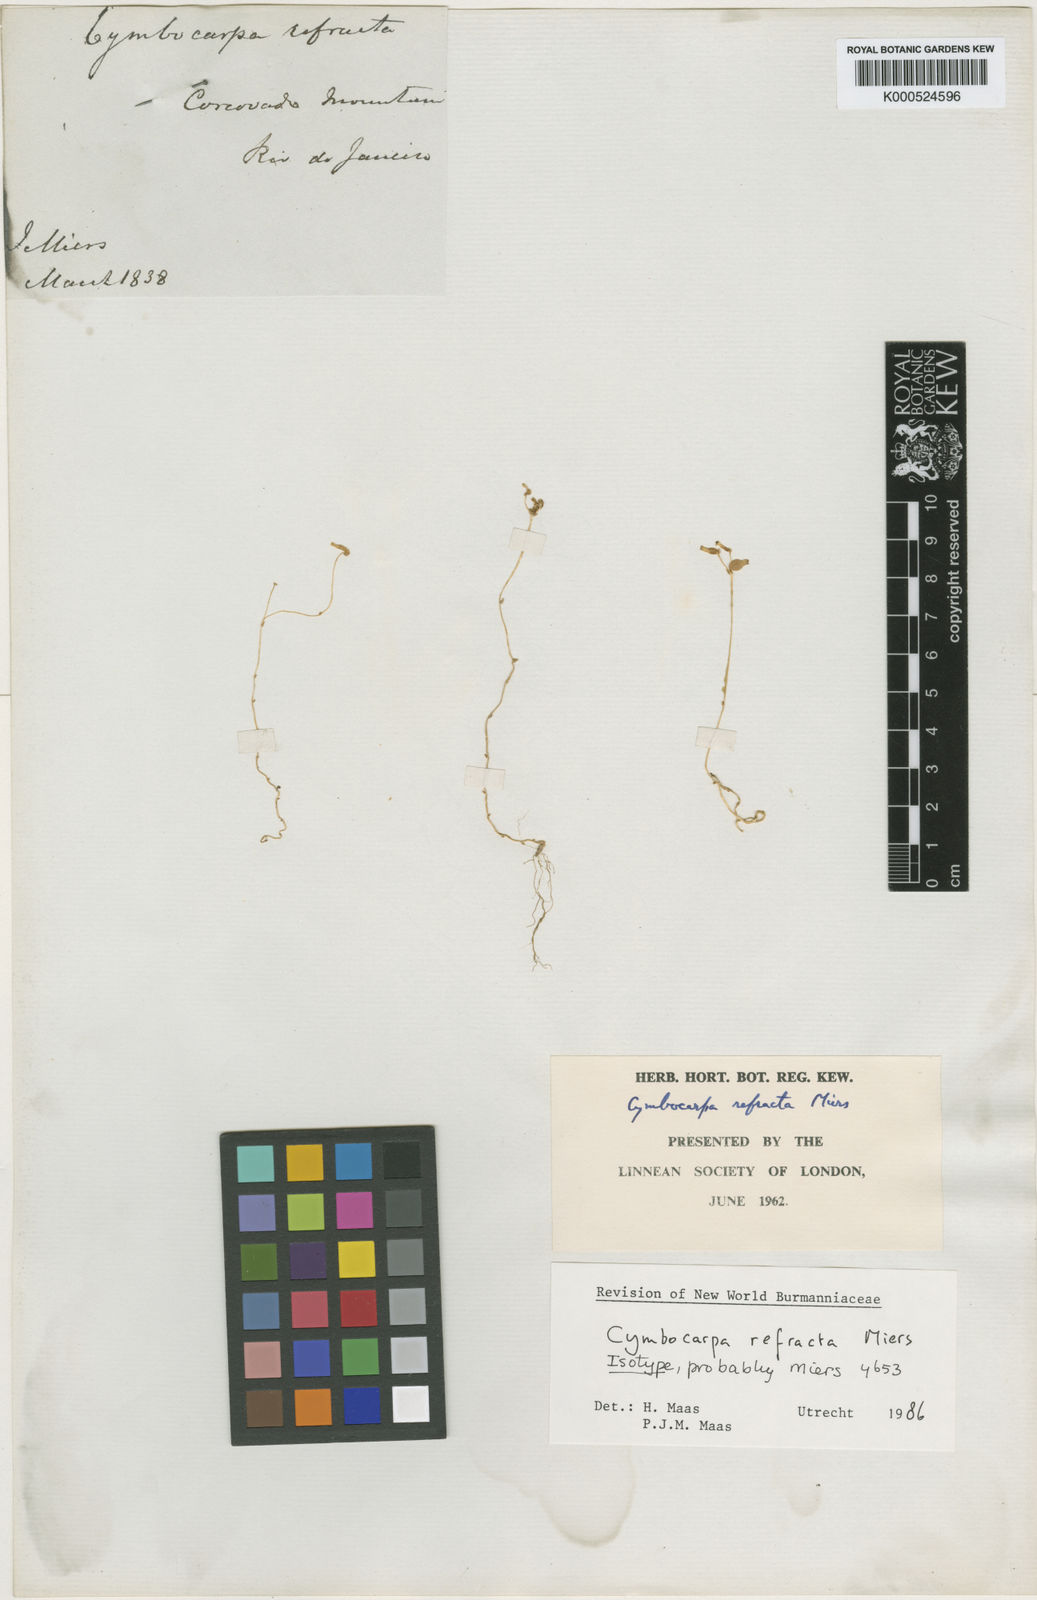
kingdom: Plantae
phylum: Tracheophyta
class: Liliopsida
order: Dioscoreales
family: Burmanniaceae
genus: Gymnosiphon
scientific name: Gymnosiphon refractus
